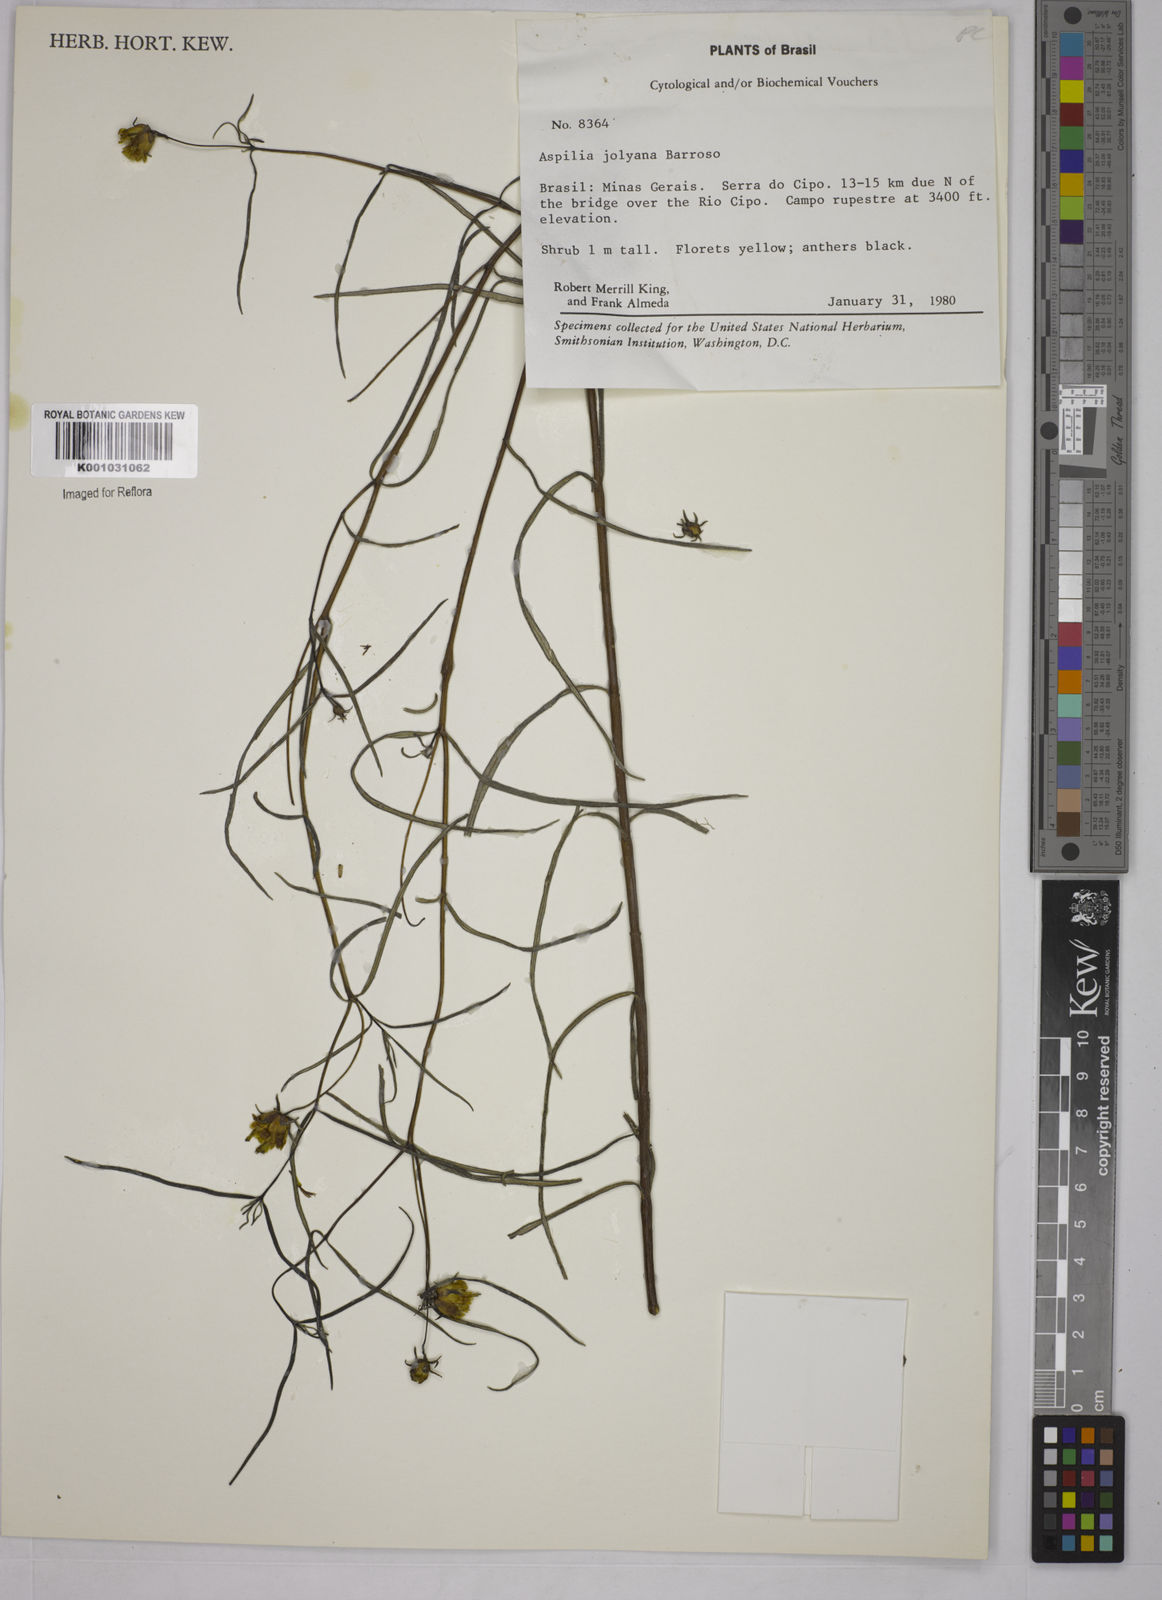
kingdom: Plantae
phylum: Tracheophyta
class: Magnoliopsida
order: Asterales
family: Asteraceae
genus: Aspilia
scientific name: Aspilia jolyana
